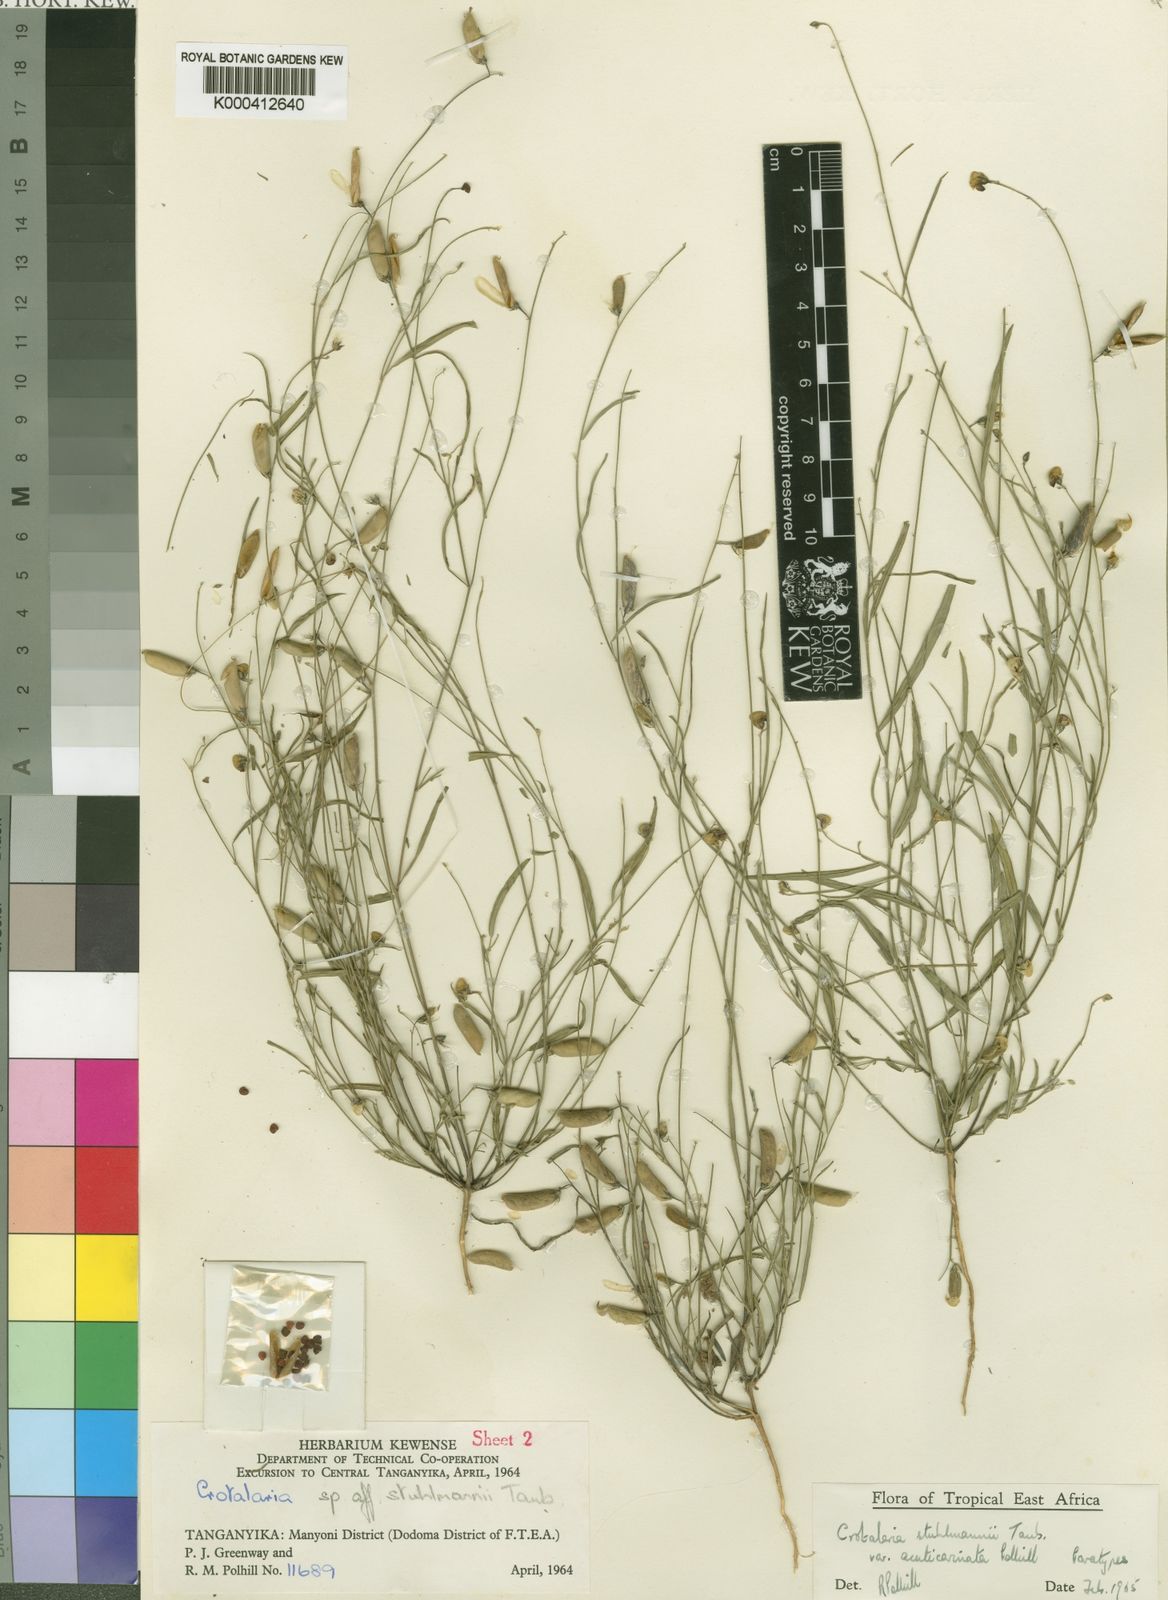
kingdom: Plantae
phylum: Tracheophyta
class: Magnoliopsida
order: Fabales
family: Fabaceae
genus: Crotalaria
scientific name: Crotalaria stuhlmannii
